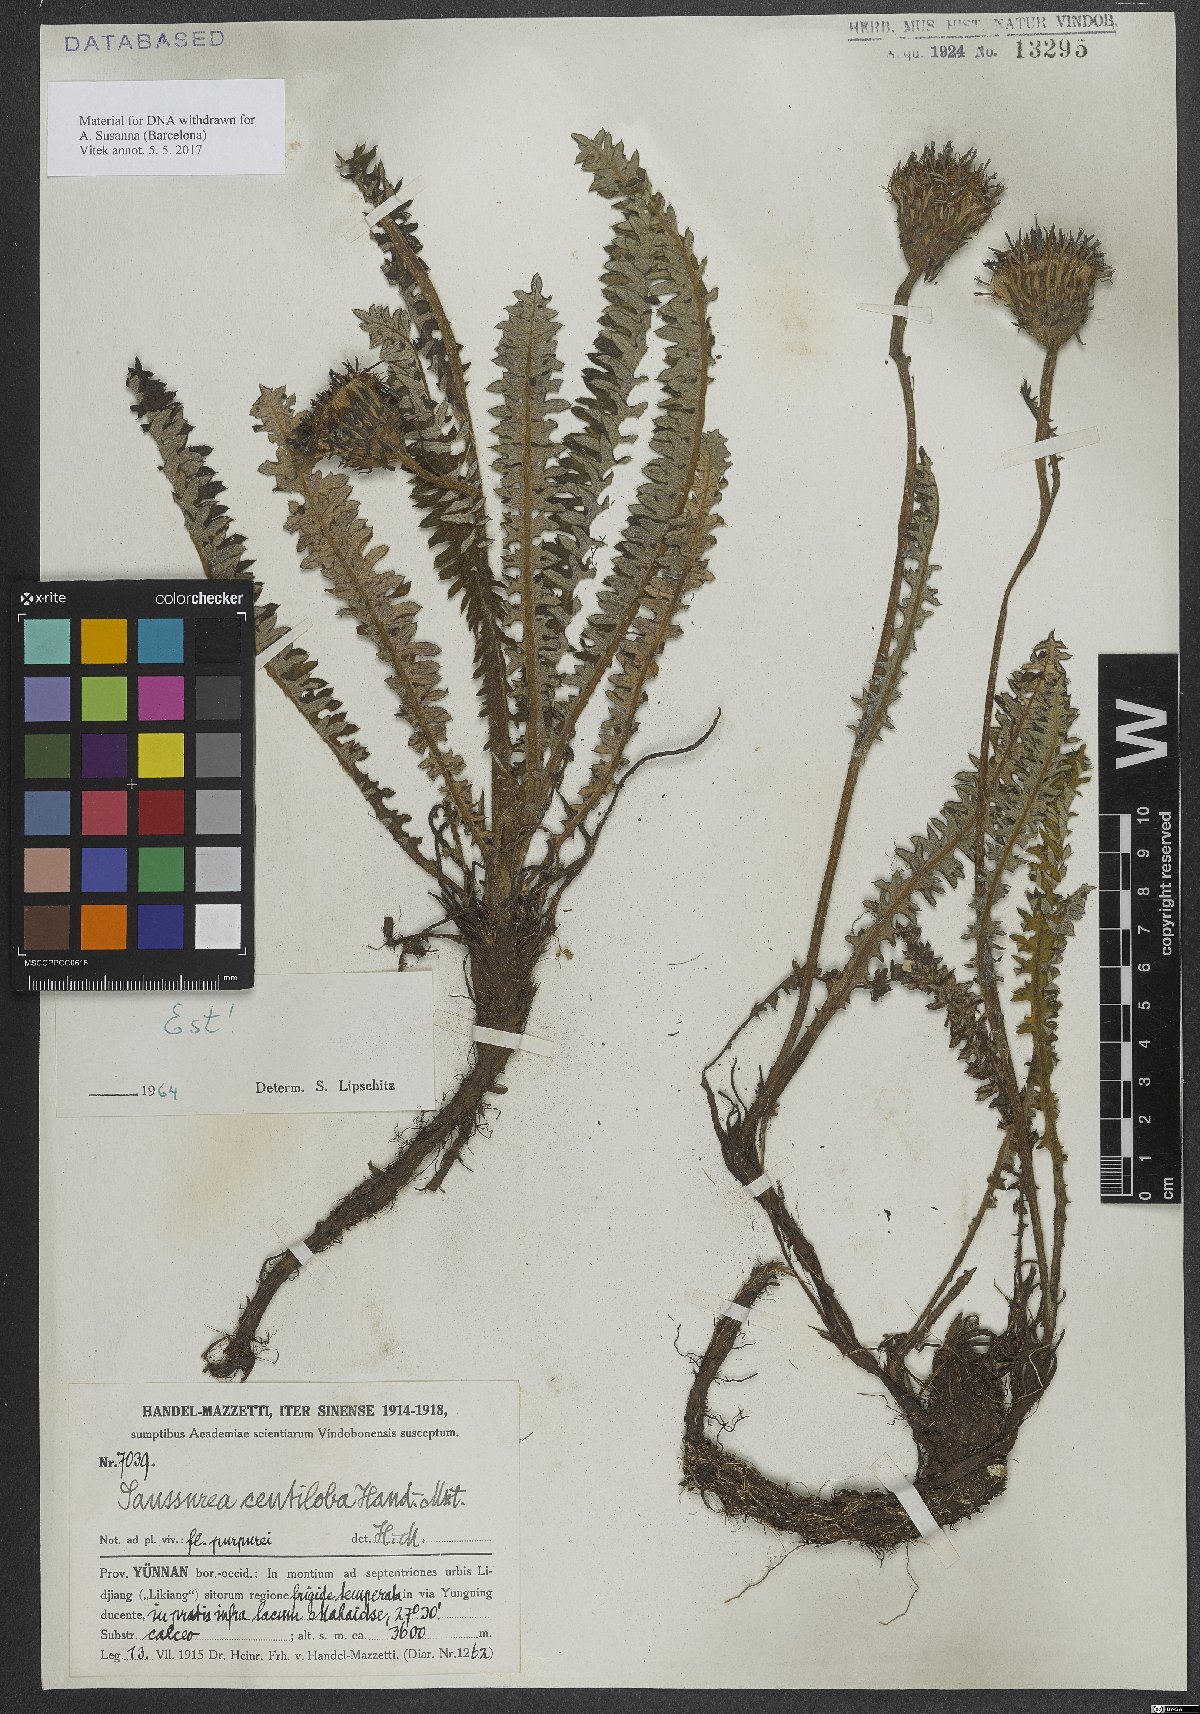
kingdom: Plantae
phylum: Tracheophyta
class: Magnoliopsida
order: Asterales
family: Asteraceae
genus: Saussurea
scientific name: Saussurea centiloba
